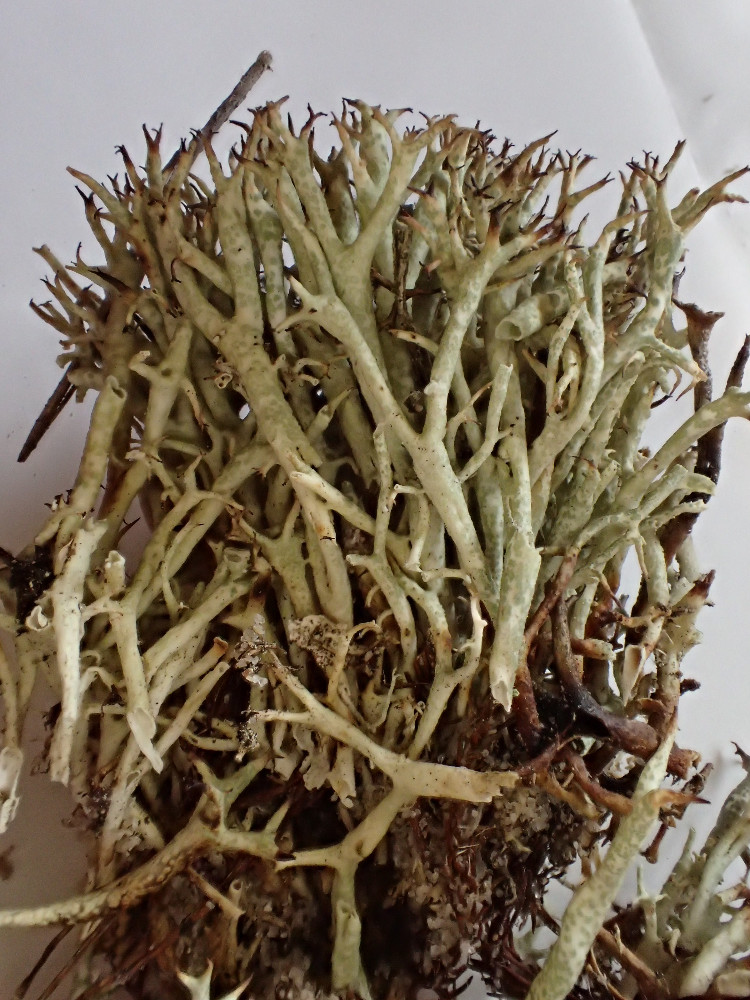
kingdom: Fungi
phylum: Ascomycota
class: Lecanoromycetes
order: Lecanorales
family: Cladoniaceae
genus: Cladonia
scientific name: Cladonia uncialis
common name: pigget bægerlav
